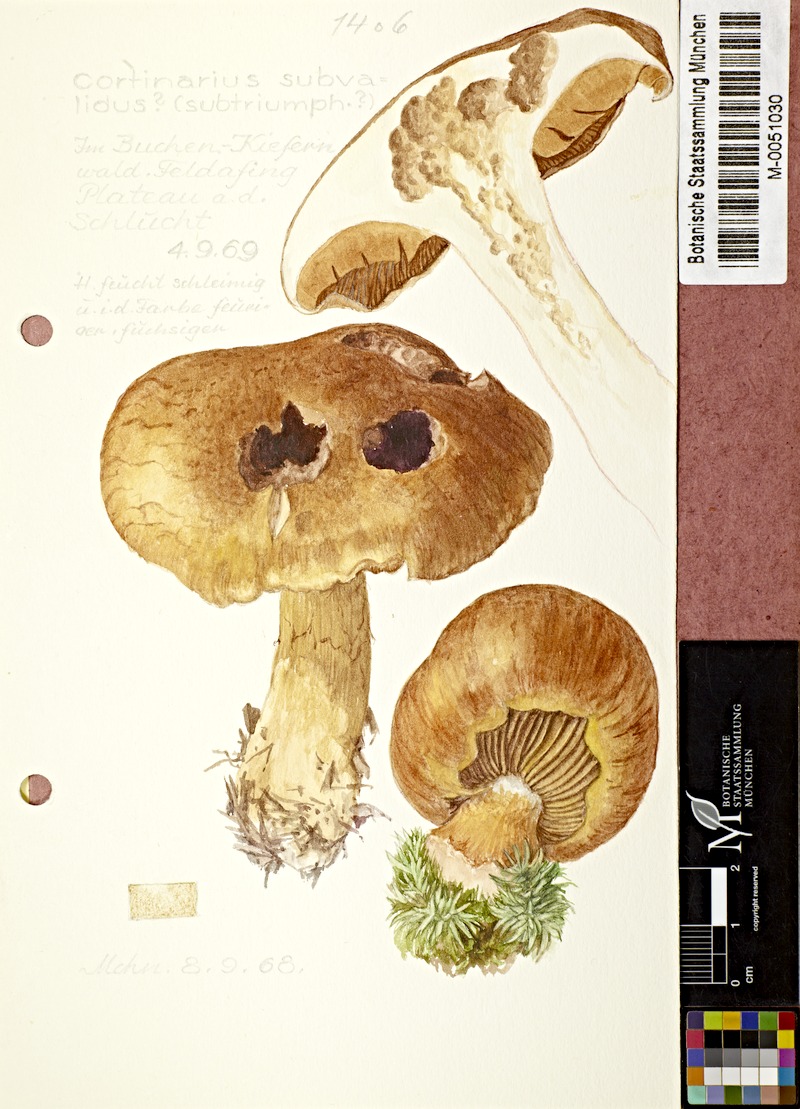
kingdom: Fungi
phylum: Basidiomycota
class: Agaricomycetes
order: Agaricales
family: Cortinariaceae
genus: Cortinarius
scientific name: Cortinarius subvalidus
